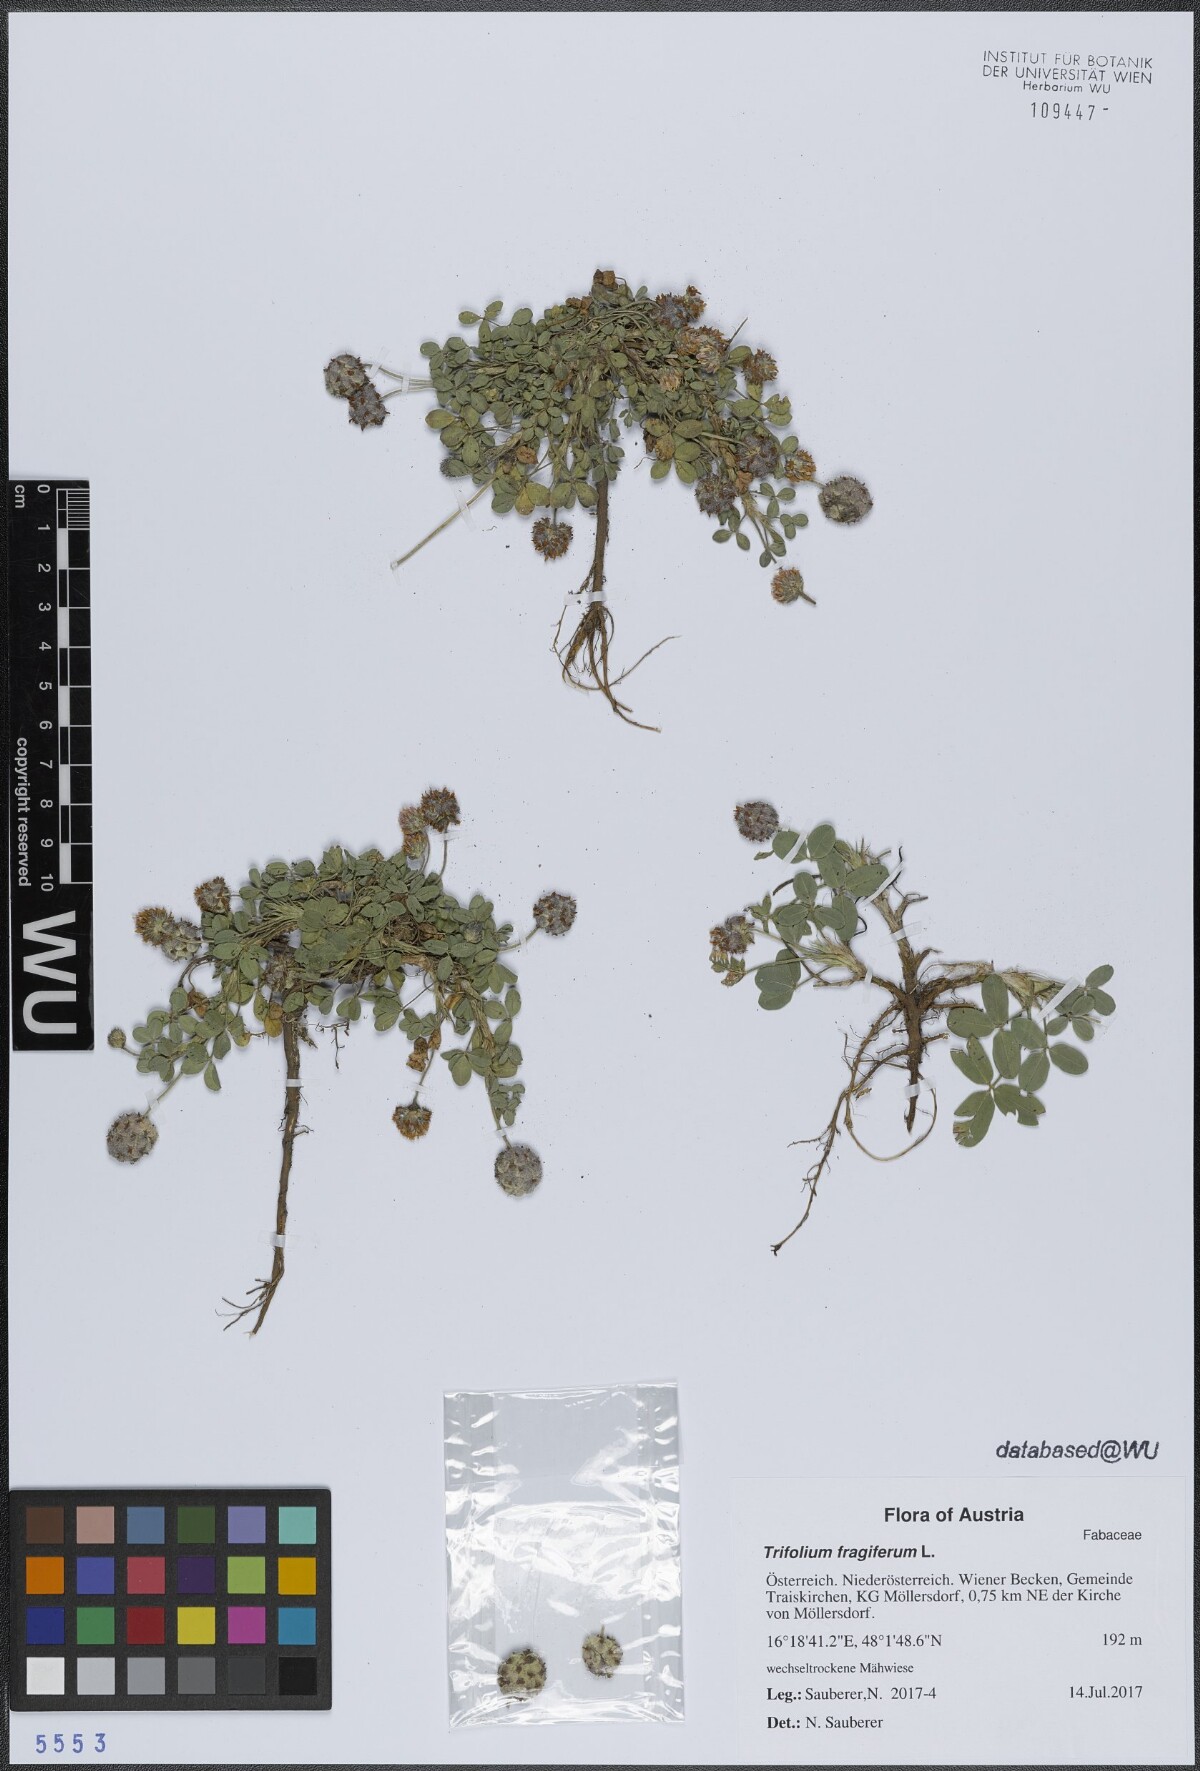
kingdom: Plantae
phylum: Tracheophyta
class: Magnoliopsida
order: Fabales
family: Fabaceae
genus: Trifolium
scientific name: Trifolium fragiferum
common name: Strawberry clover
